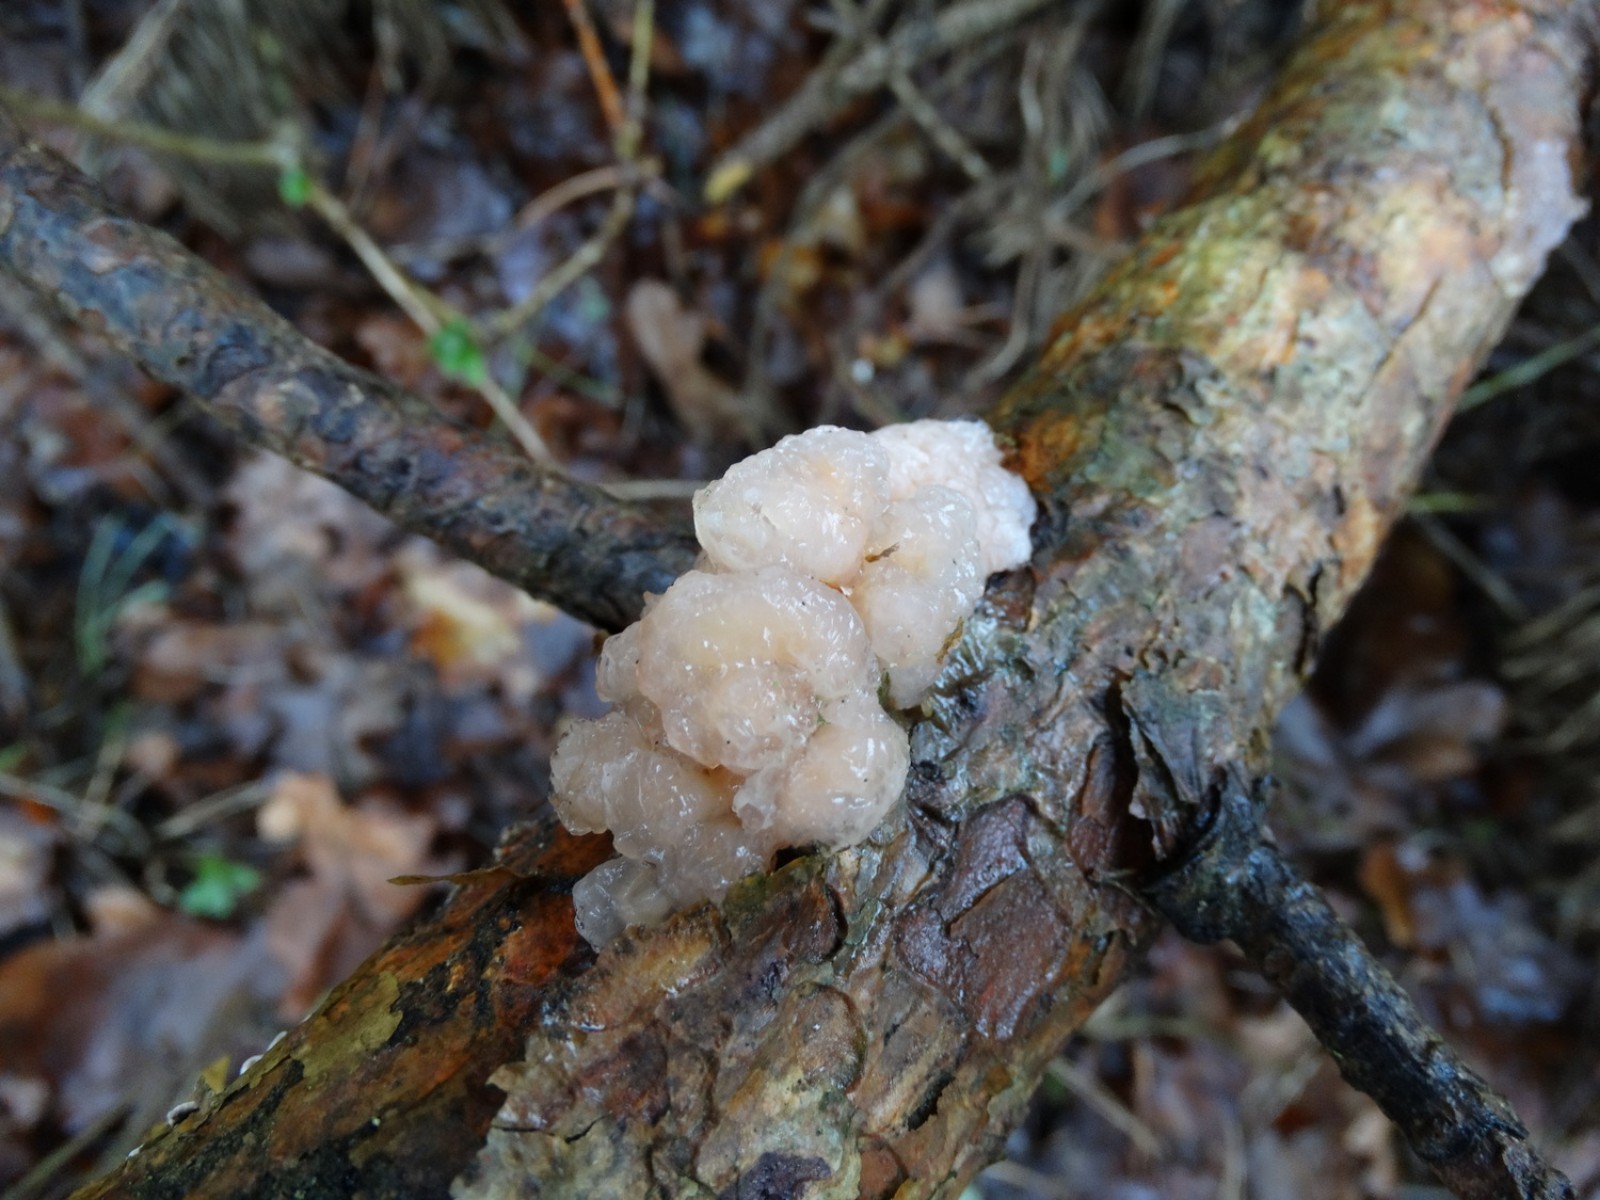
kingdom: Fungi
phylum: Basidiomycota
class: Tremellomycetes
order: Tremellales
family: Naemateliaceae
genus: Naematelia
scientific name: Naematelia encephala
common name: fyrre-bævresvamp
